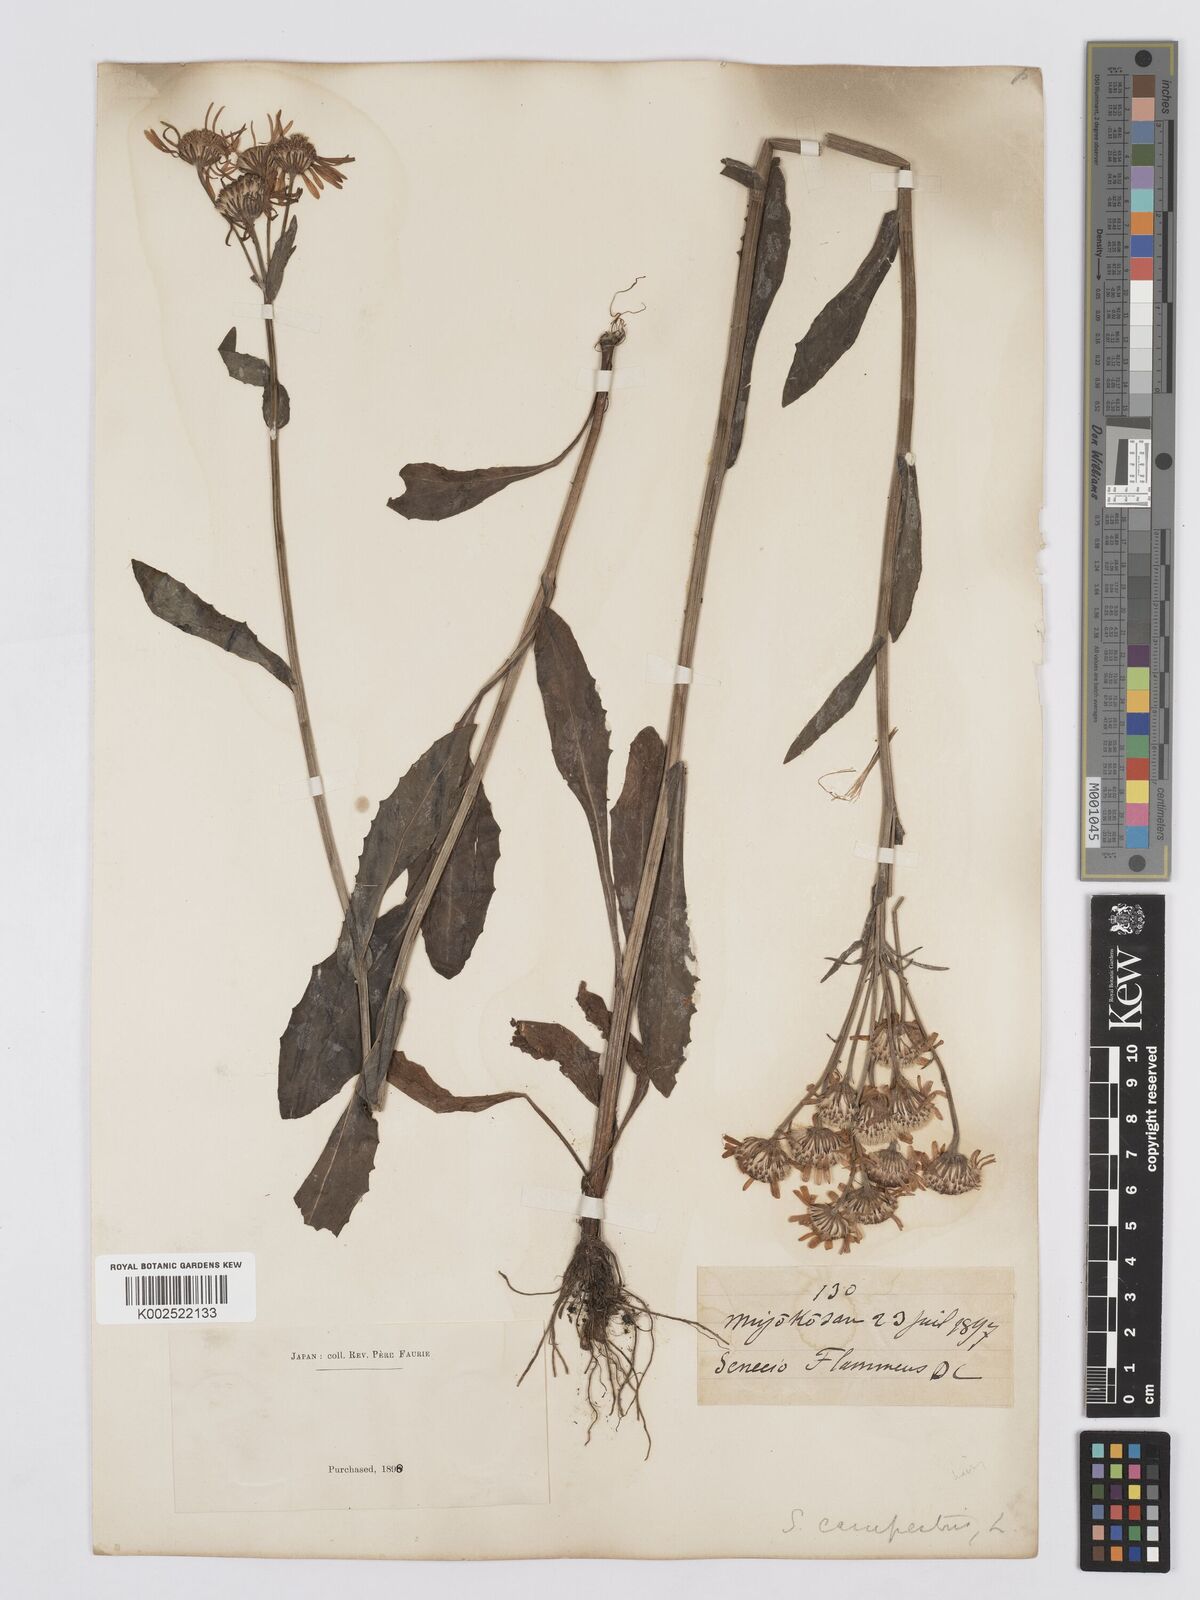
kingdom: Plantae
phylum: Tracheophyta
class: Magnoliopsida
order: Asterales
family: Asteraceae
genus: Tephroseris
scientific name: Tephroseris flammea
